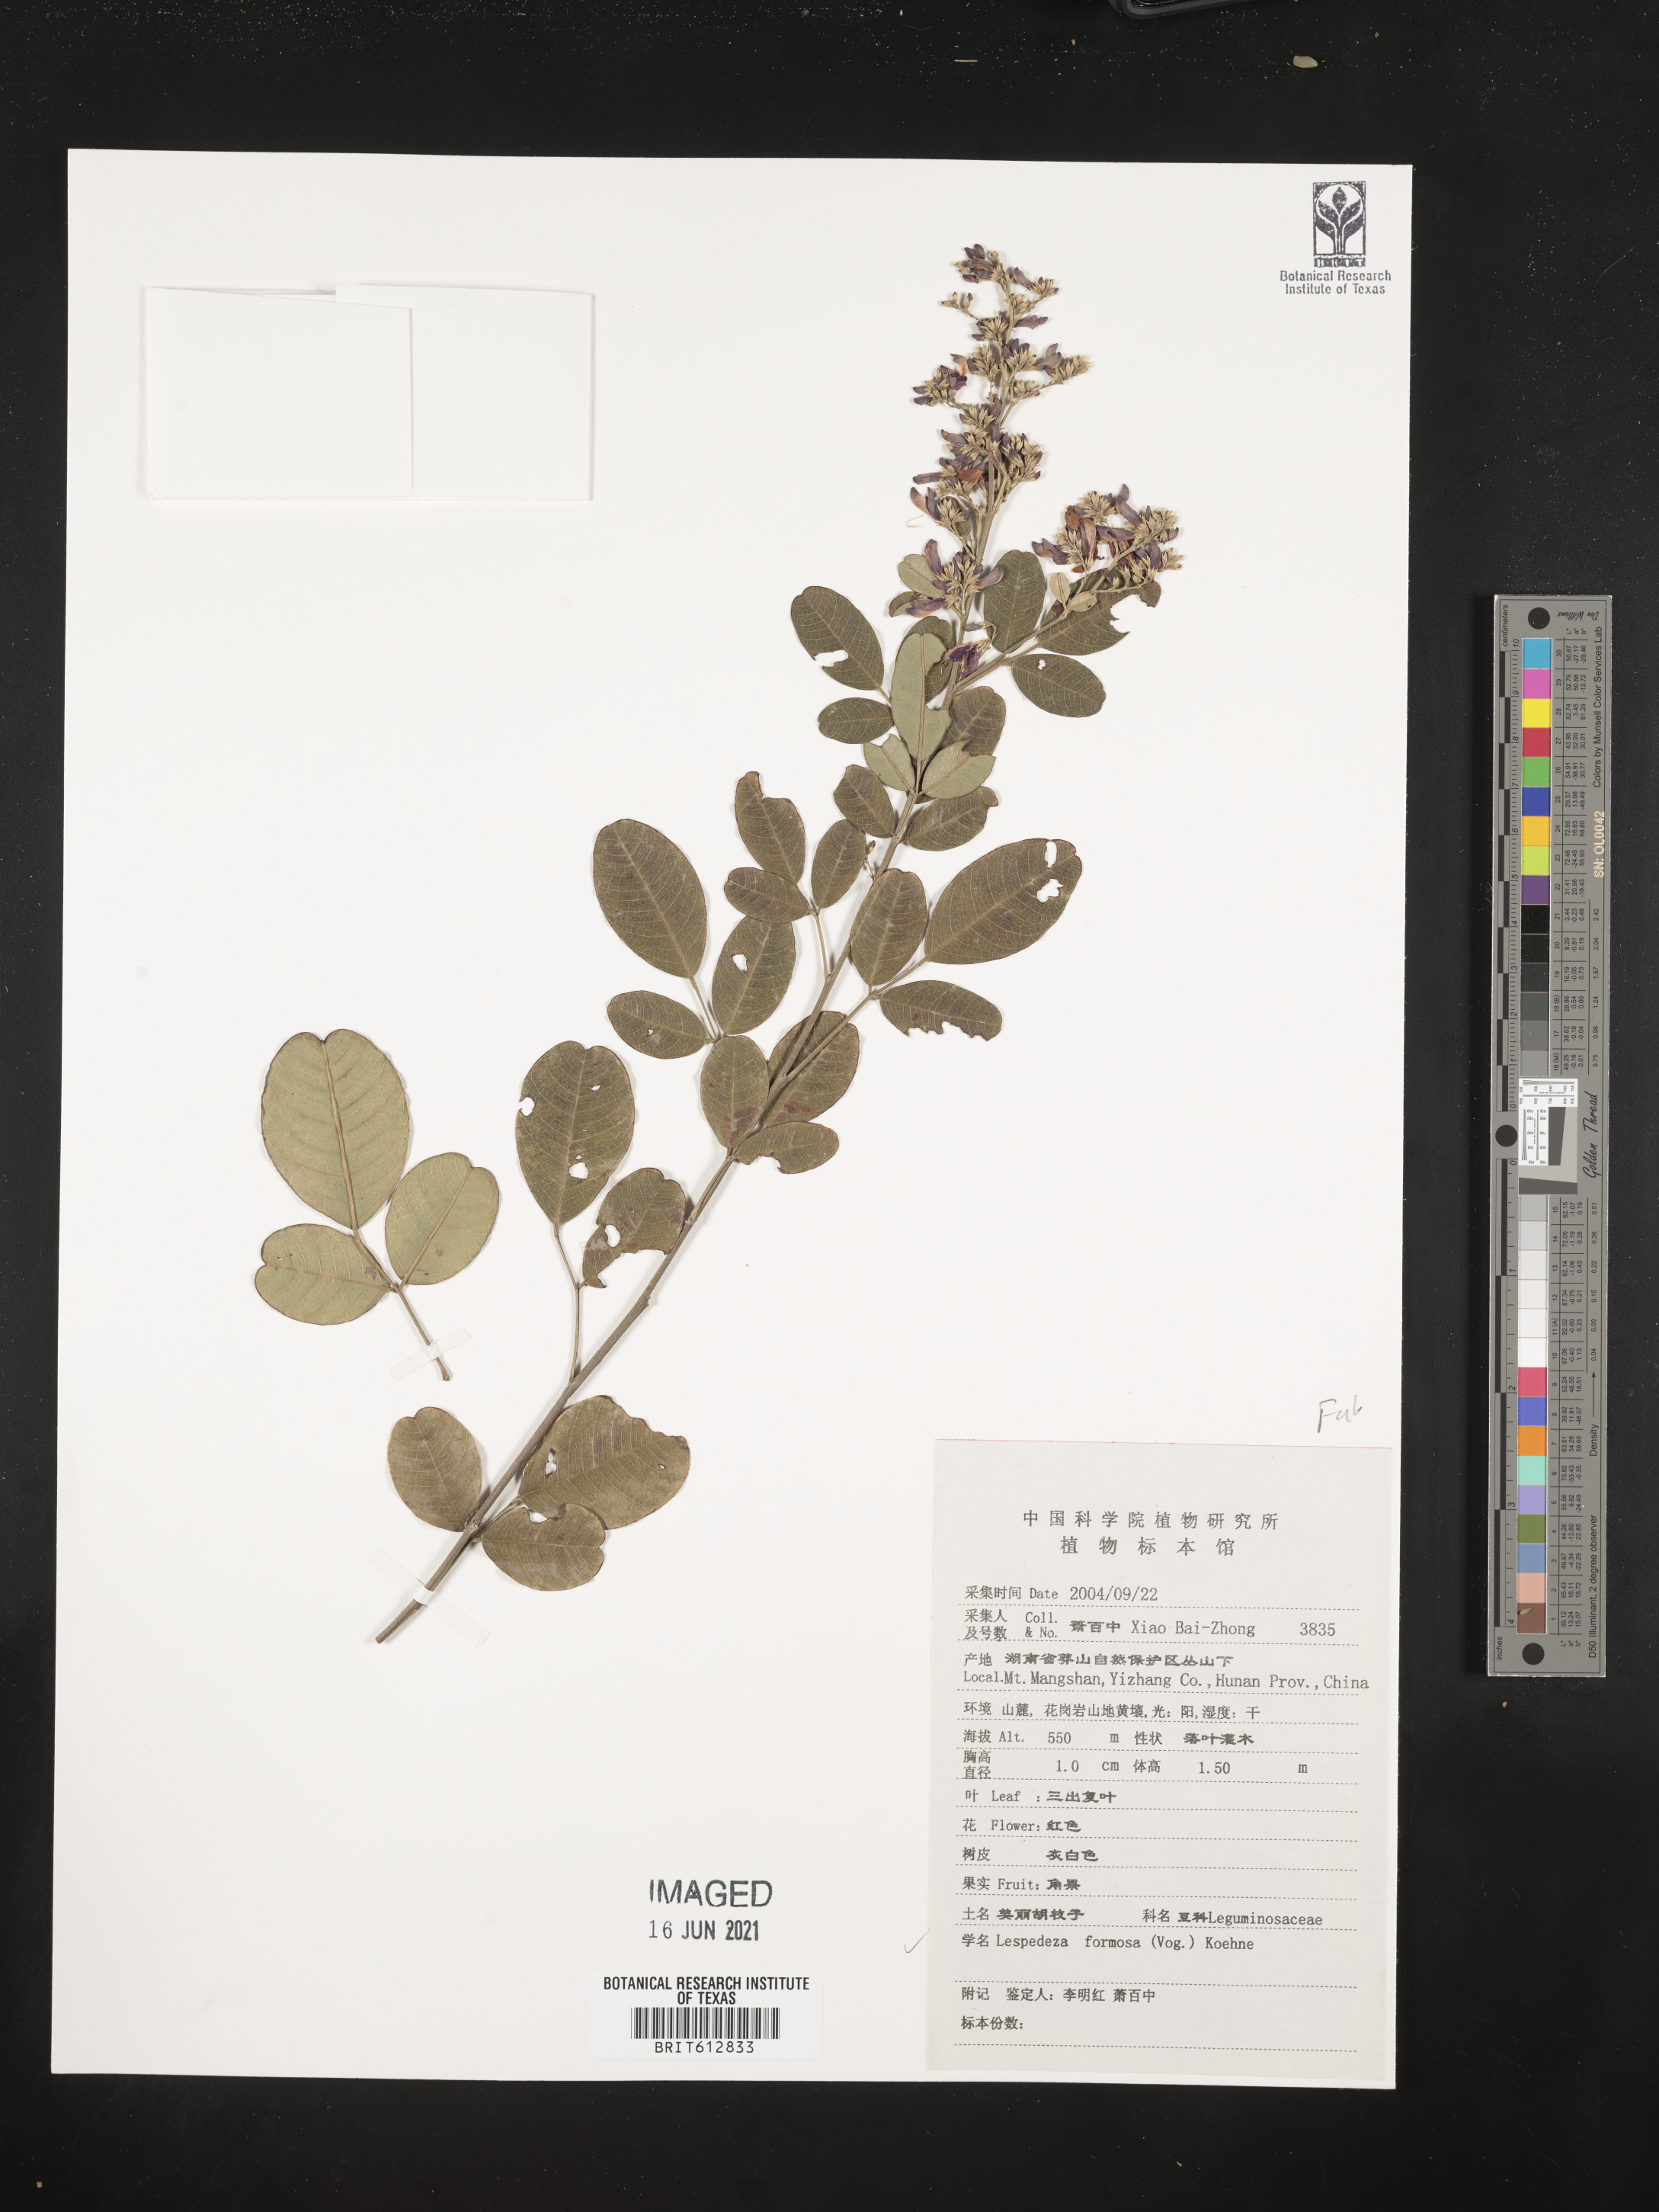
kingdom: Plantae
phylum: Tracheophyta
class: Magnoliopsida
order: Fabales
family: Fabaceae
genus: Lespedeza
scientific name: Lespedeza thunbergii
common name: Thunberg's lespedeza
